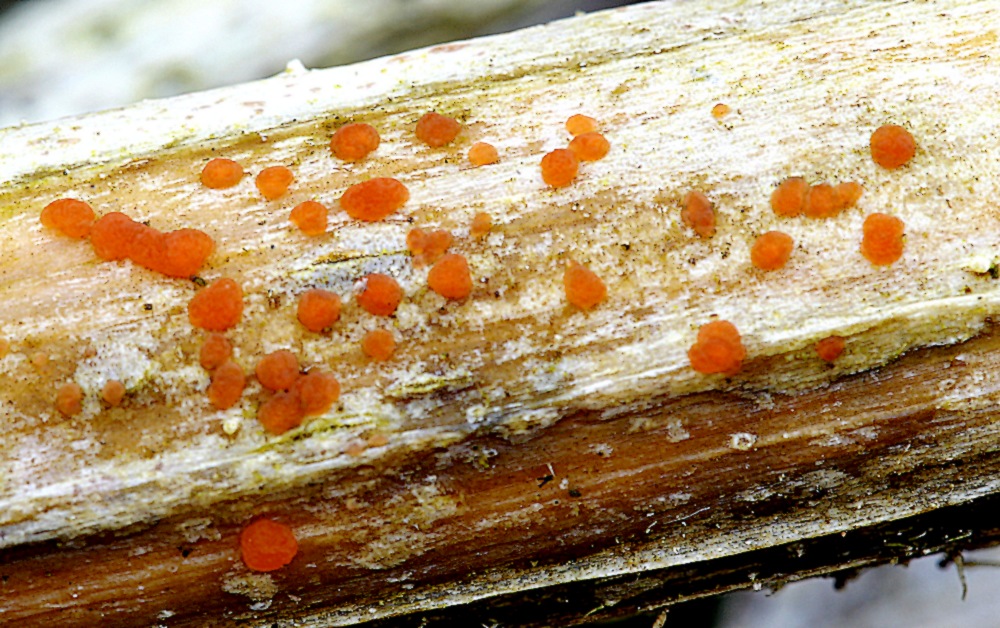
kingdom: Fungi
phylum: Ascomycota
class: Leotiomycetes
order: Helotiales
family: Calloriaceae
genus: Calloria
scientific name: Calloria urticae
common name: nælde-orangeskive
